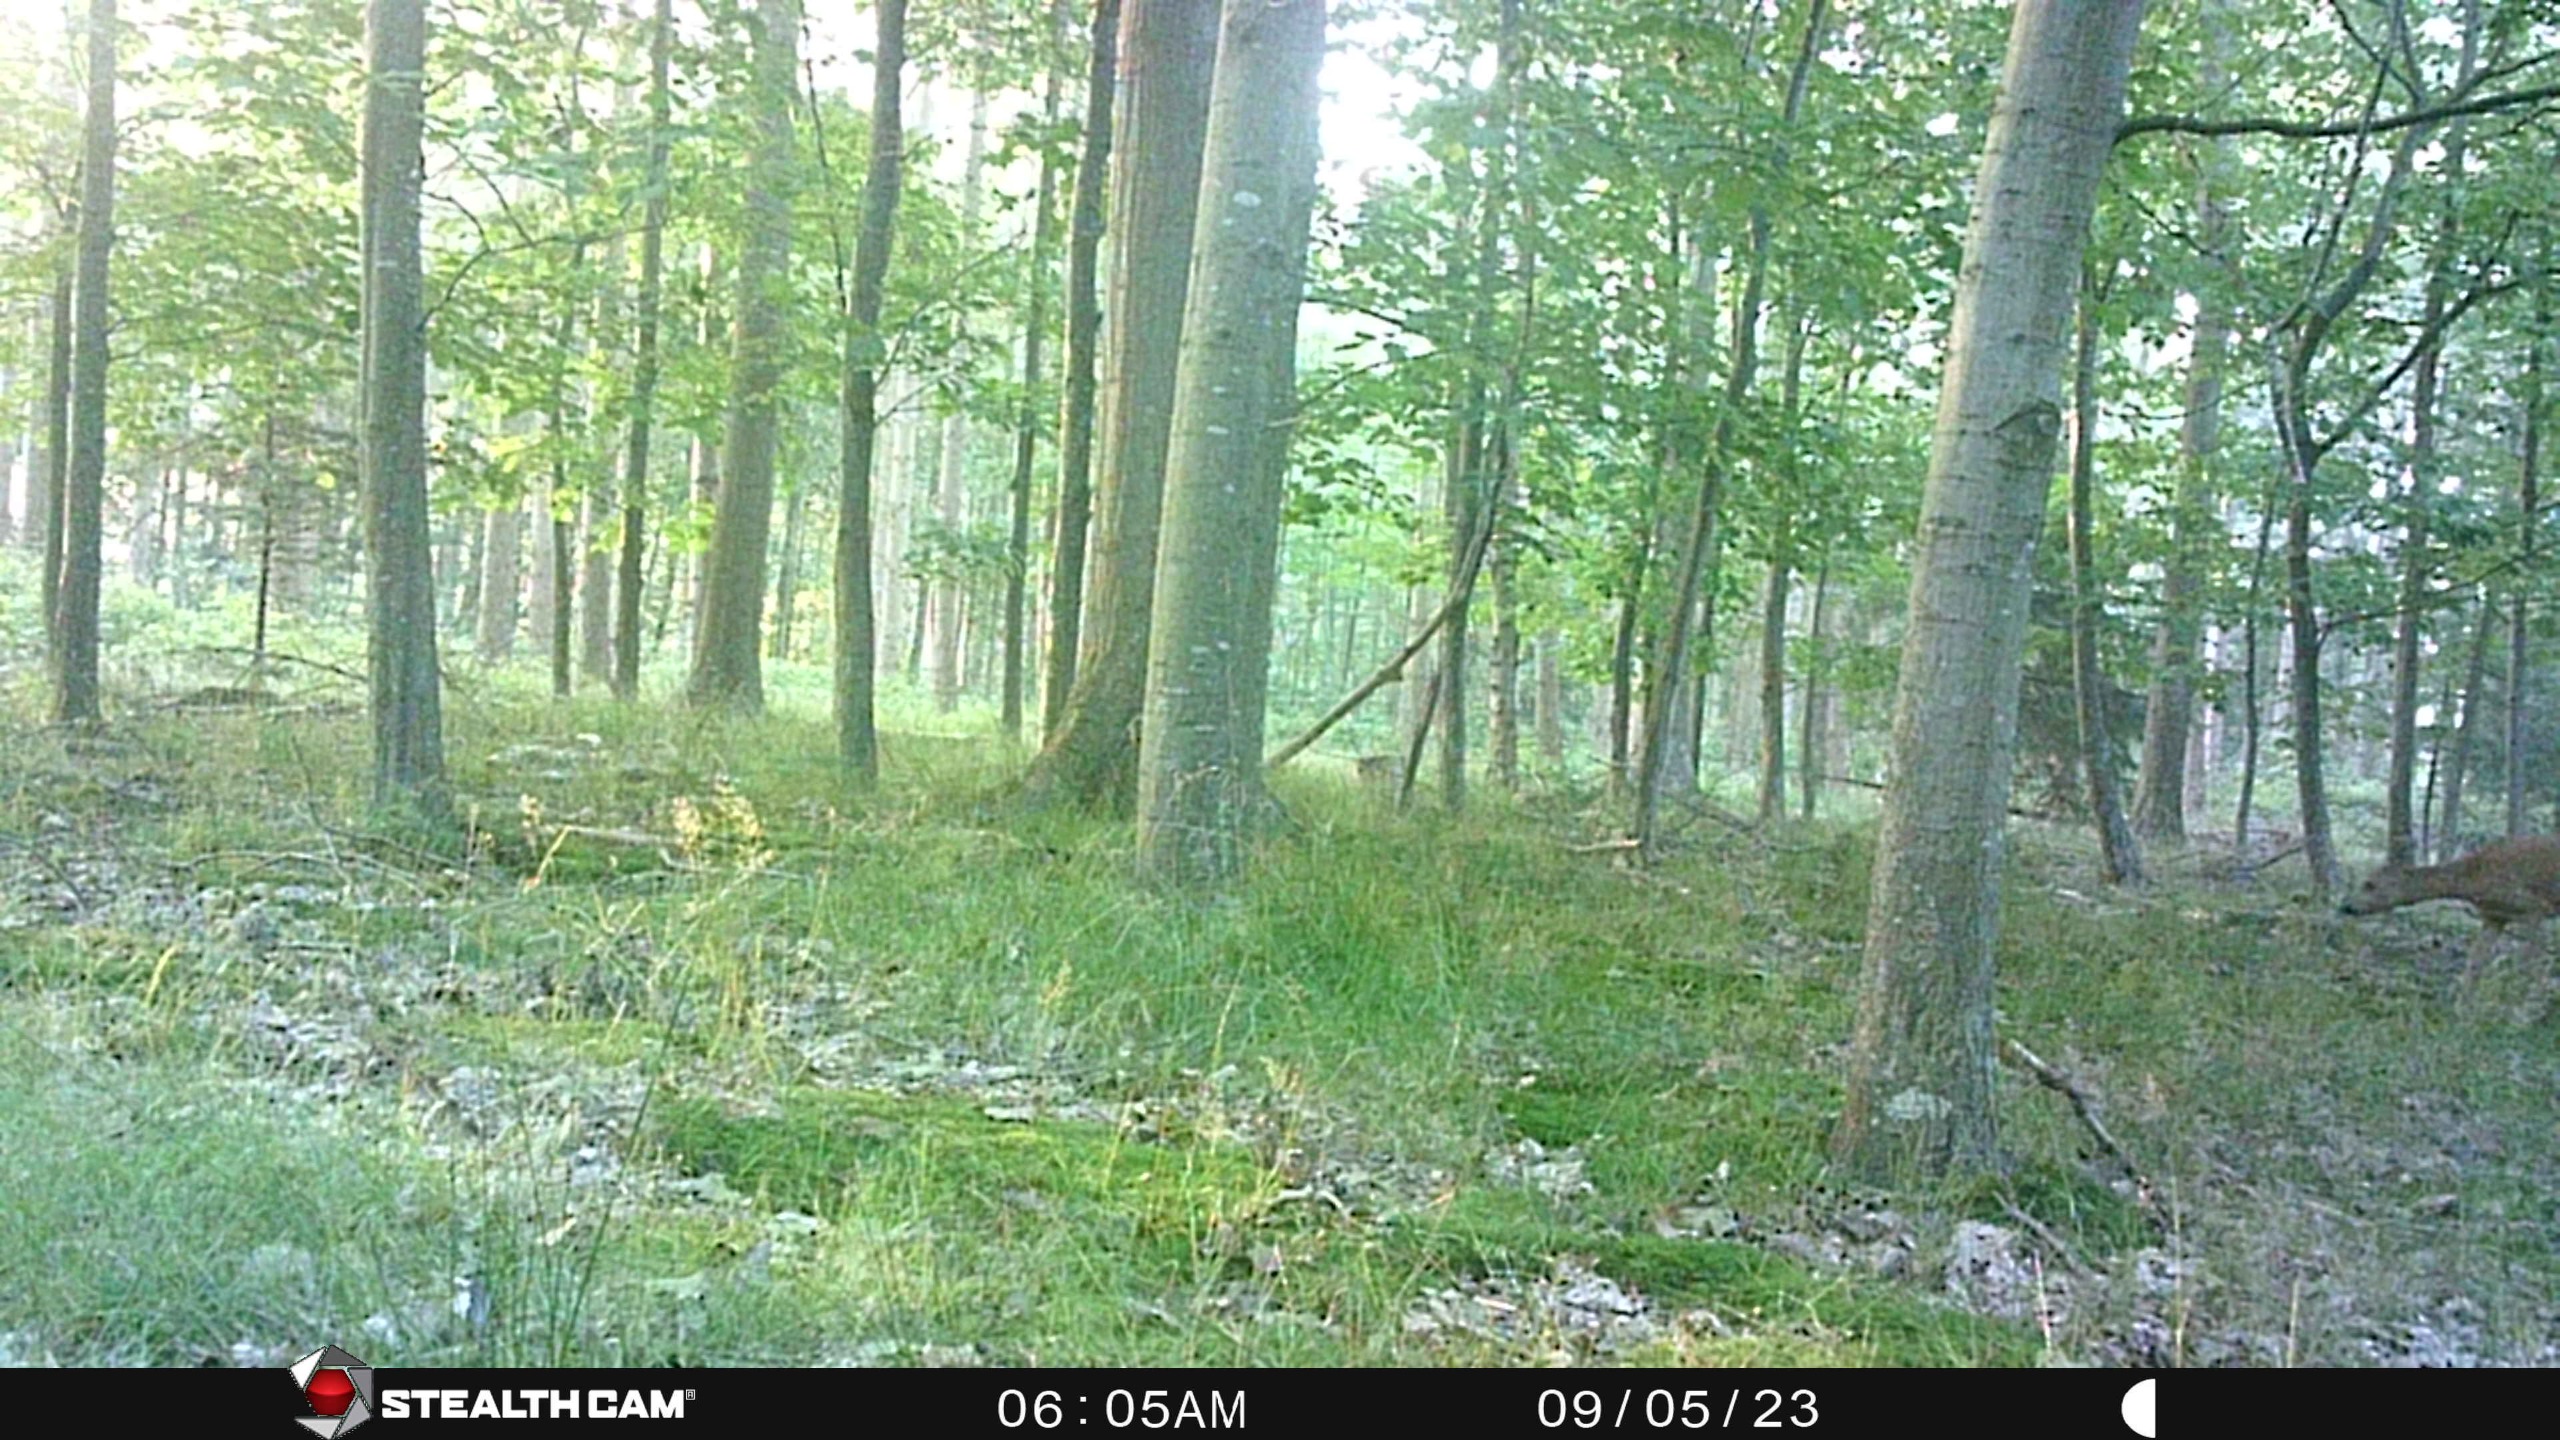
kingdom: Animalia
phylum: Chordata
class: Mammalia
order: Artiodactyla
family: Cervidae
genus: Capreolus
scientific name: Capreolus capreolus
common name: Rådyr
